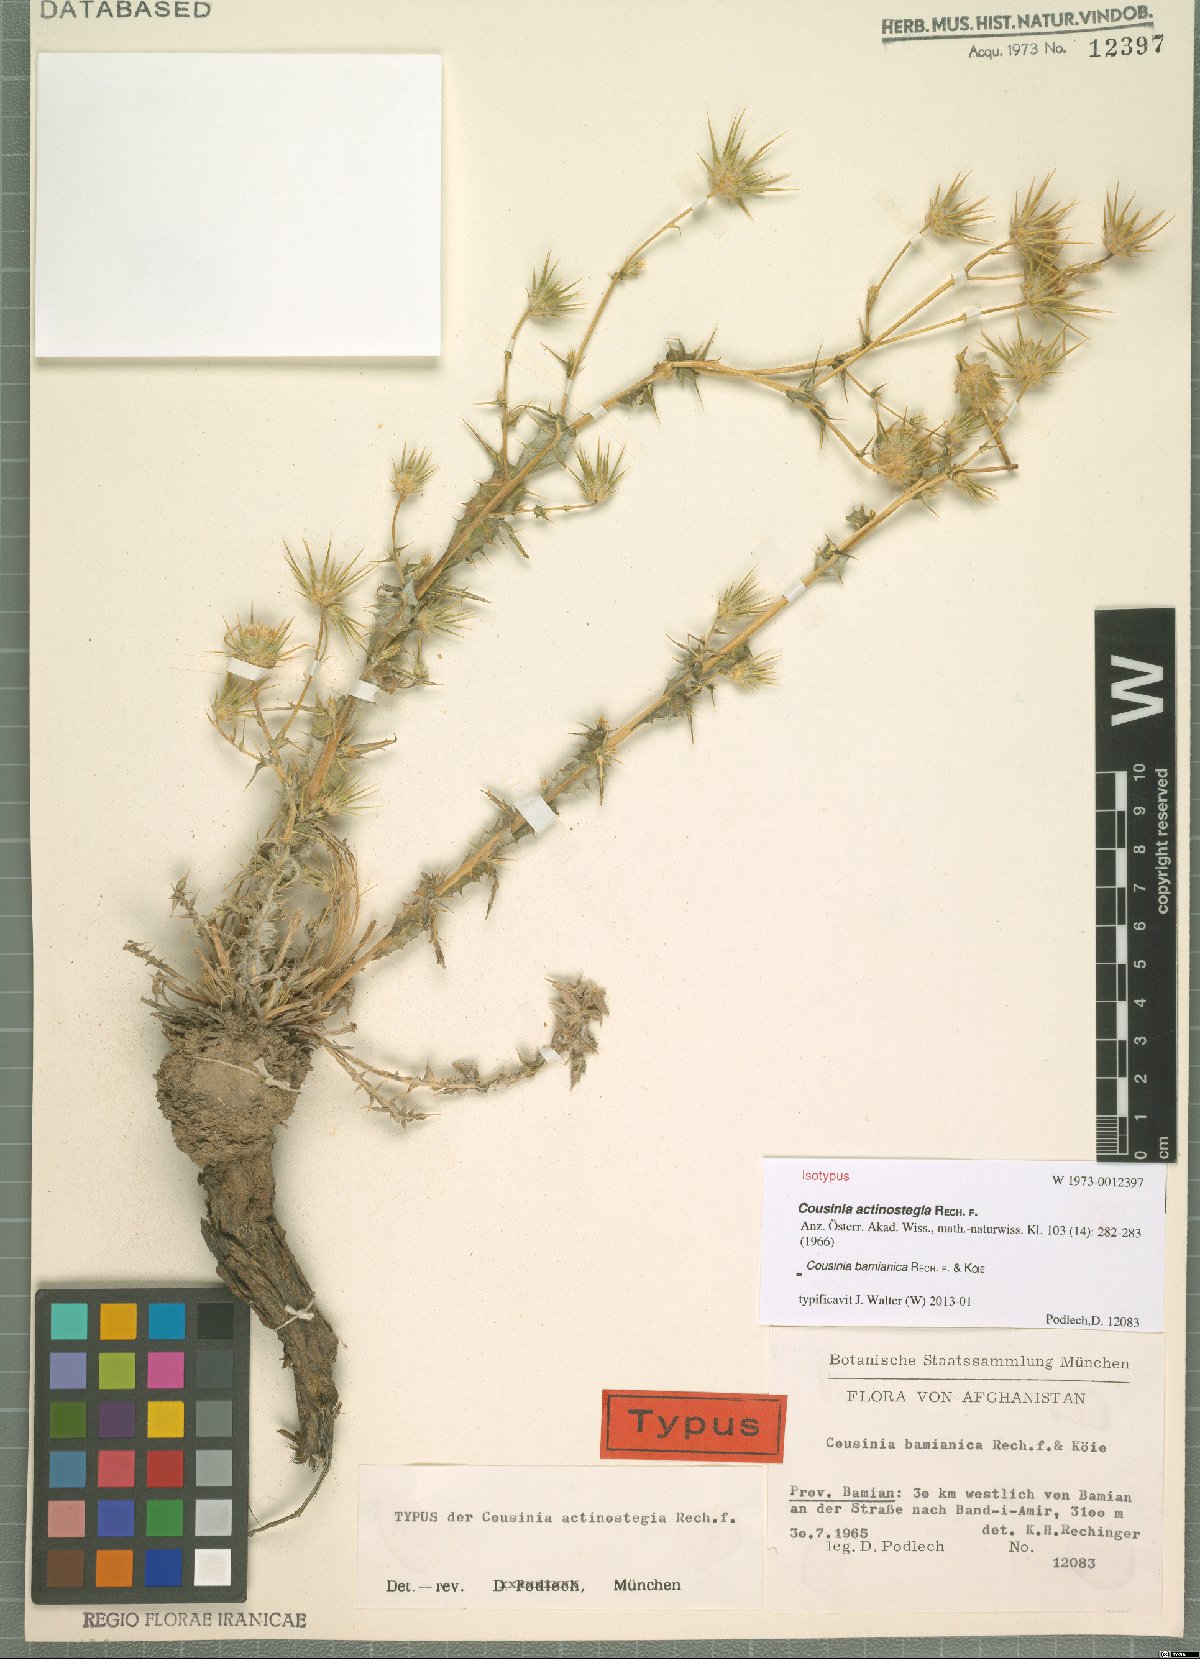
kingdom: Plantae
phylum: Tracheophyta
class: Magnoliopsida
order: Asterales
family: Asteraceae
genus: Cousinia
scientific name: Cousinia bamianica
